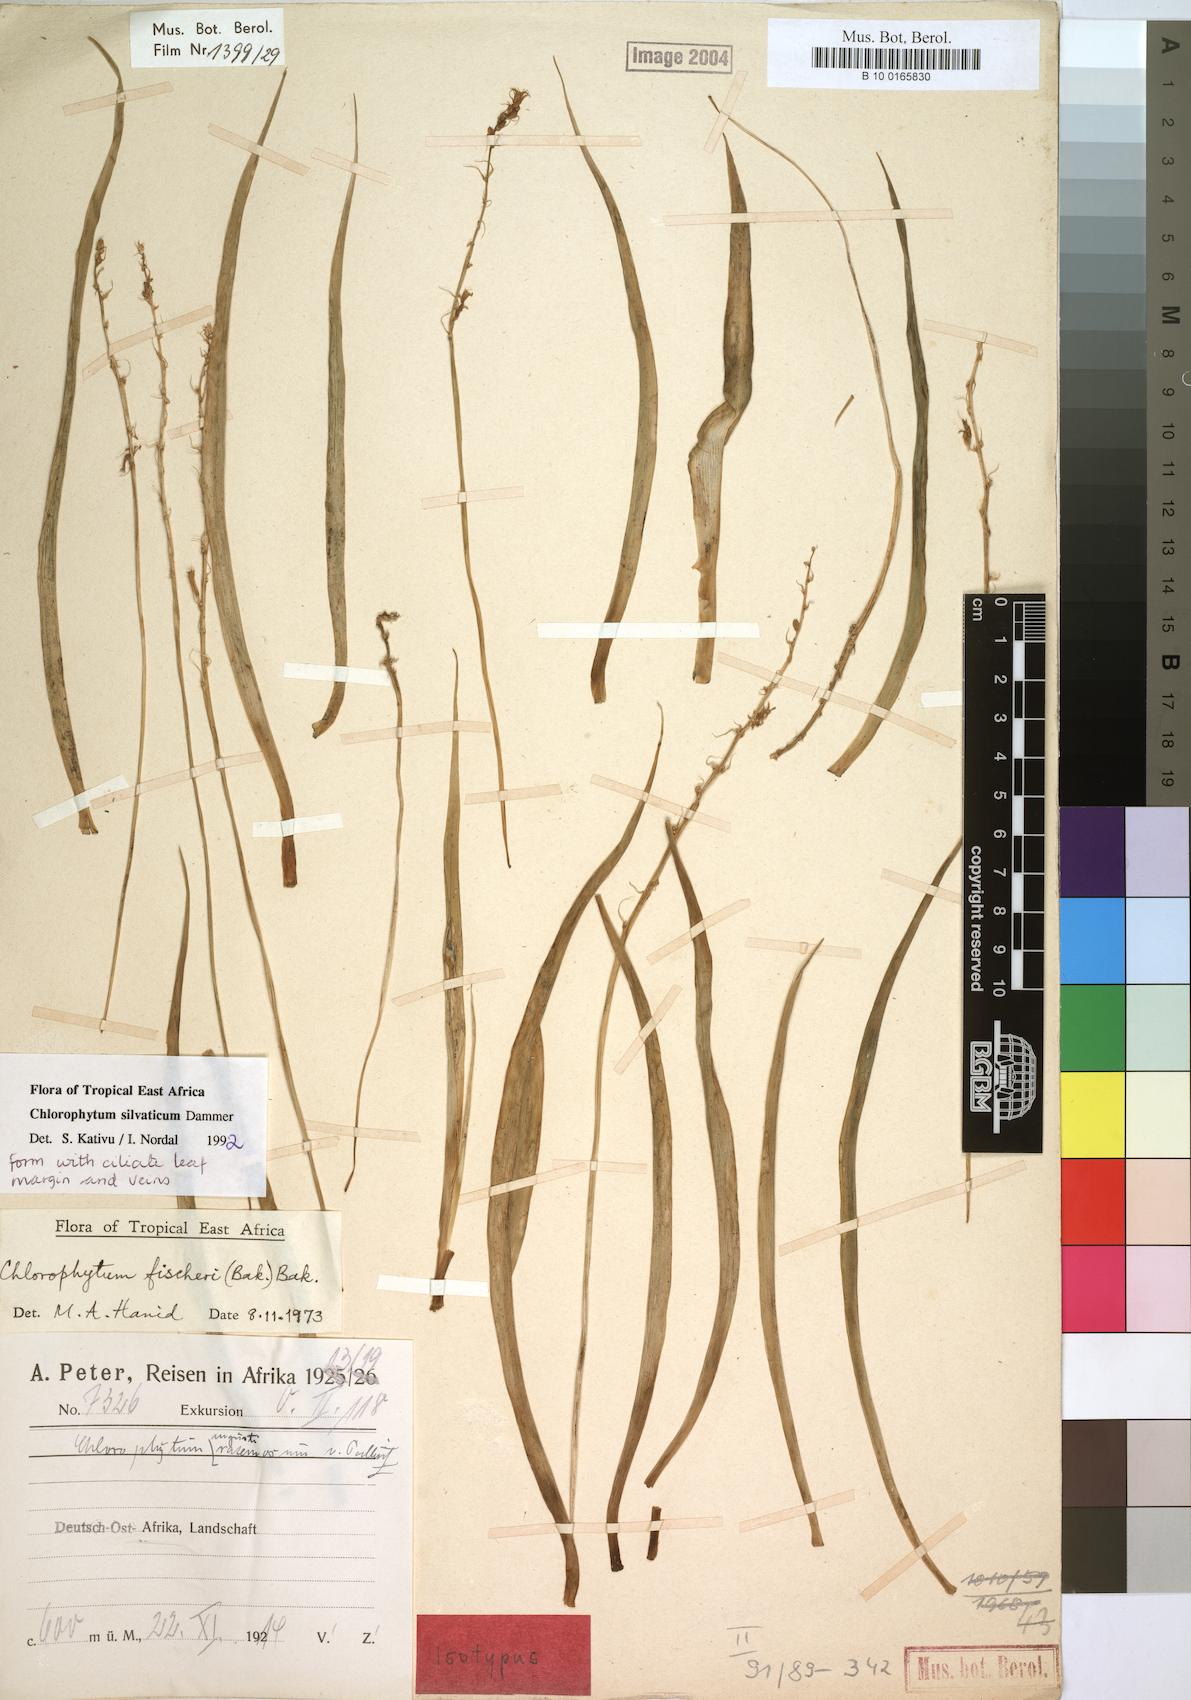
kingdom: Plantae
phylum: Tracheophyta
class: Liliopsida
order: Asparagales
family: Asparagaceae
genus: Chlorophytum
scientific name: Chlorophytum africanum
